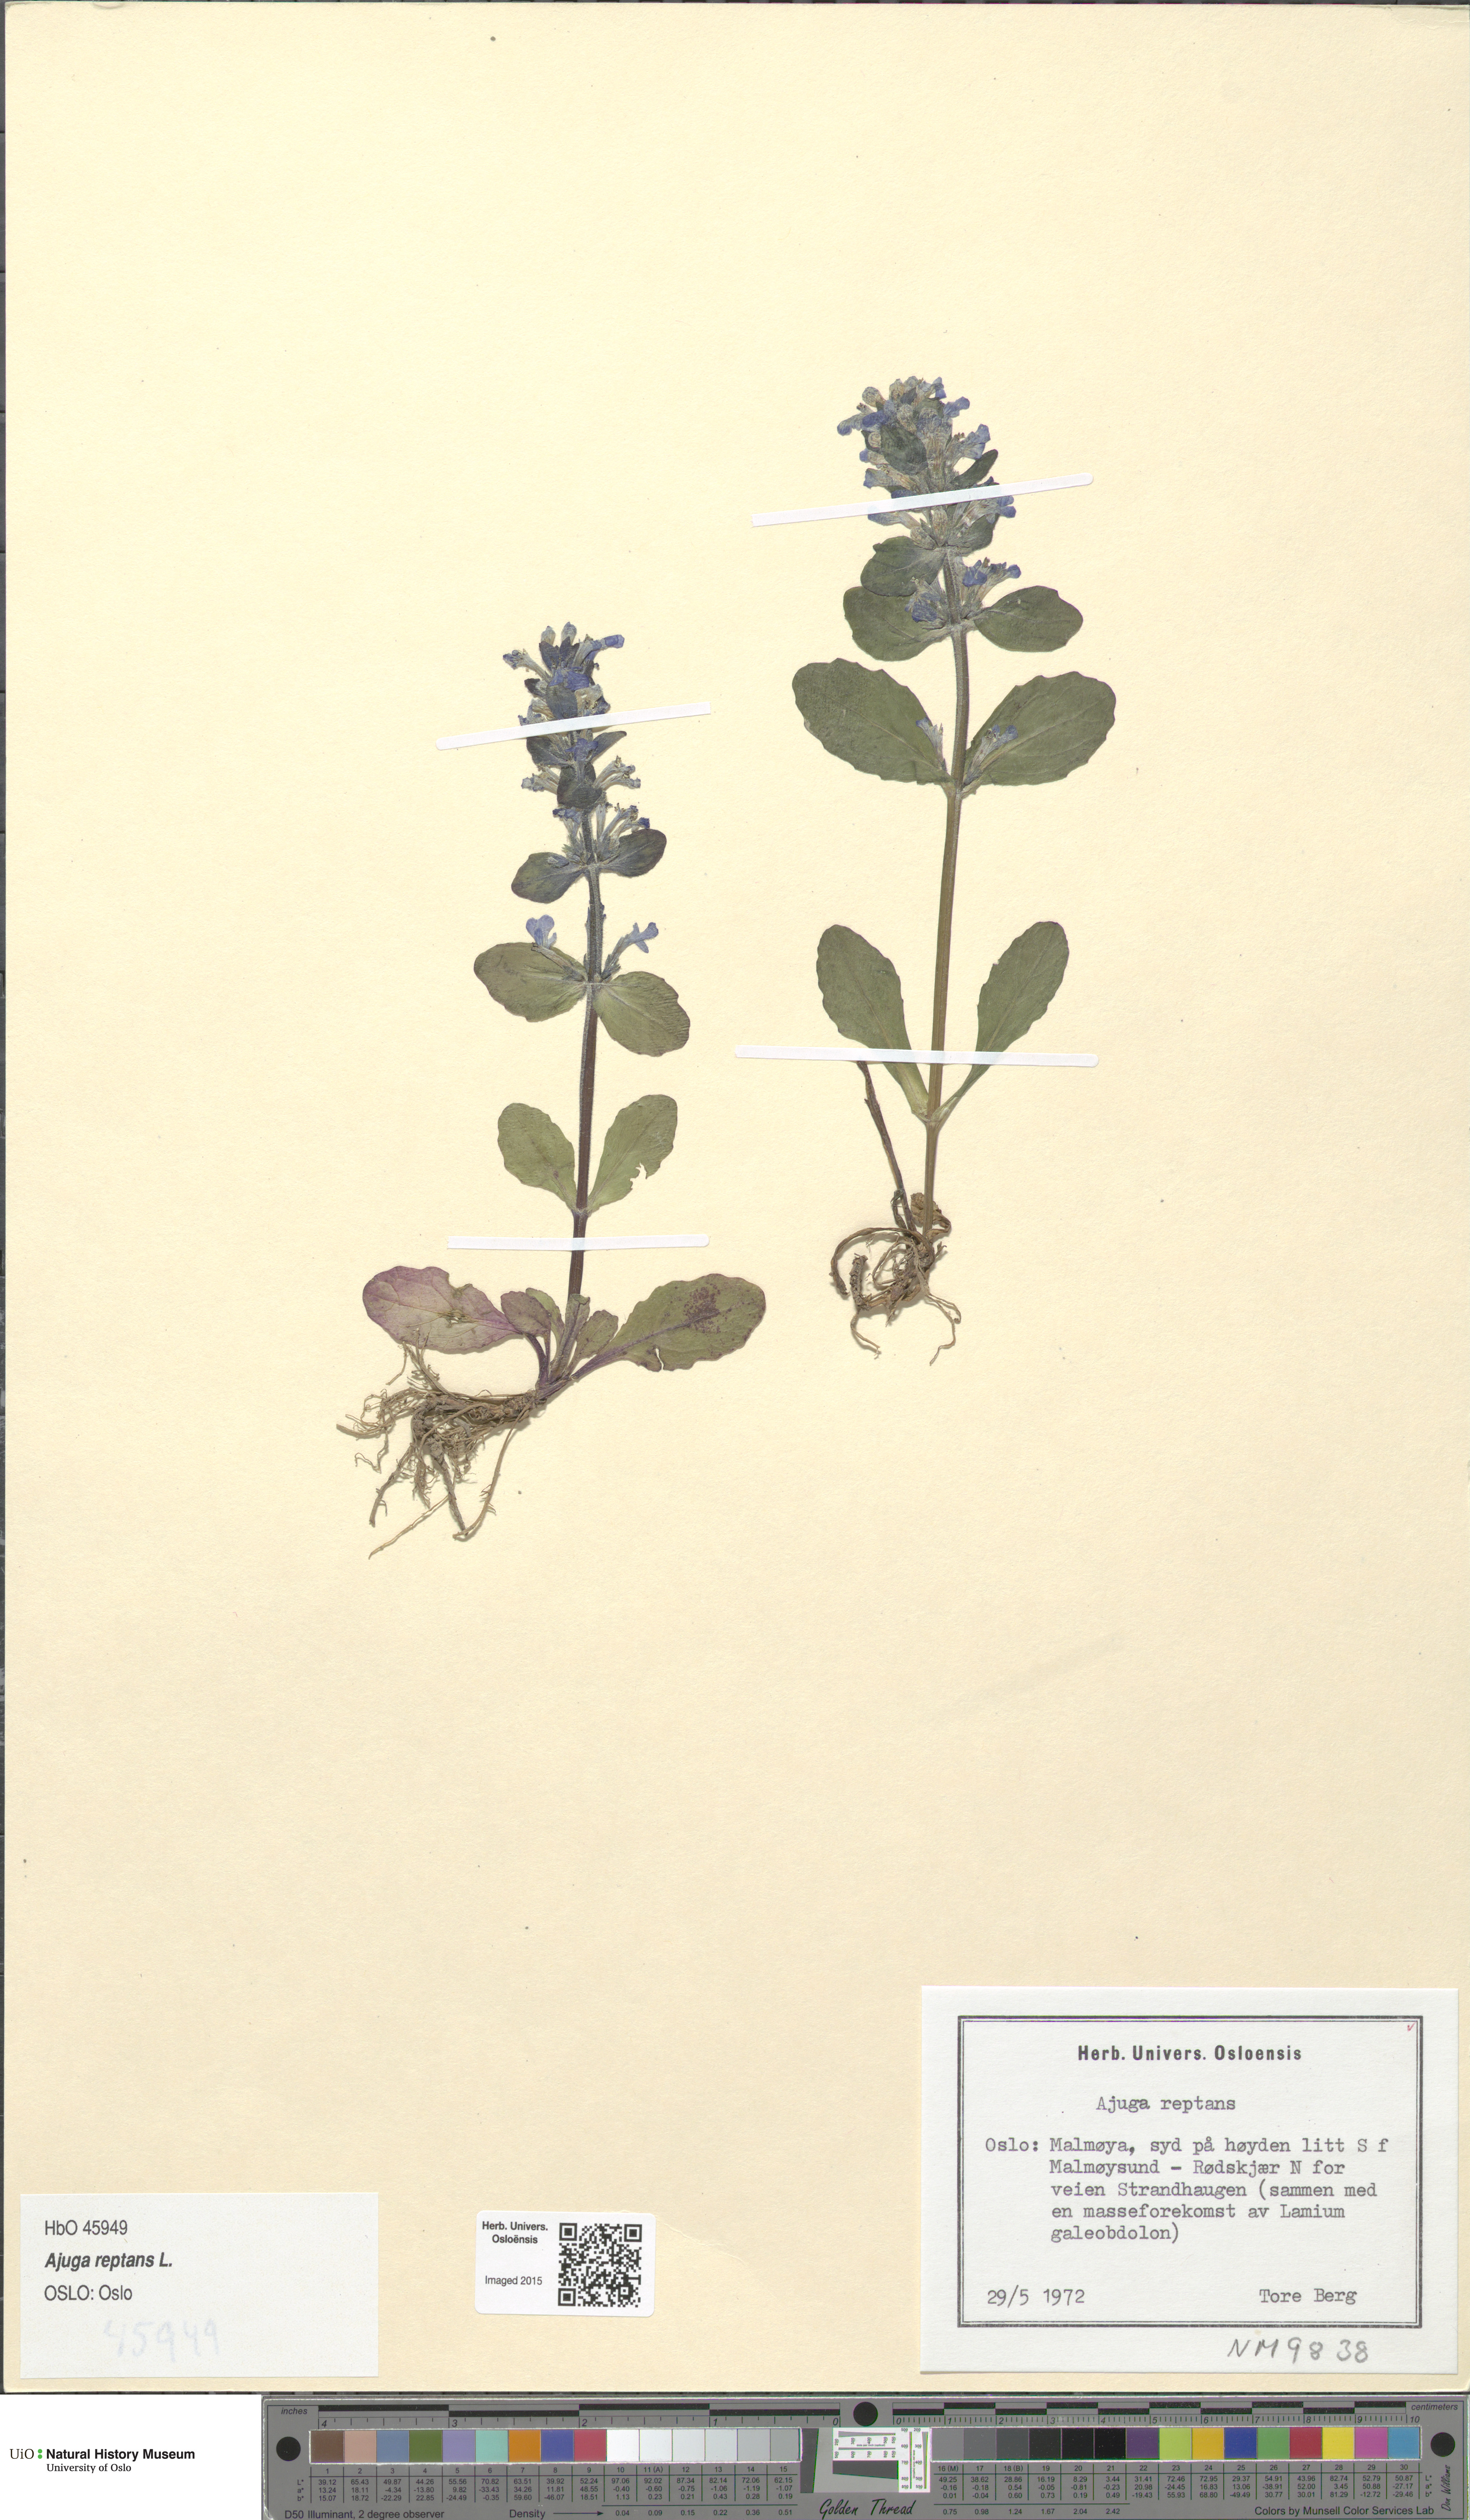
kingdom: Plantae
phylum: Tracheophyta
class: Magnoliopsida
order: Lamiales
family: Lamiaceae
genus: Ajuga
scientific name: Ajuga reptans
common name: Bugle
